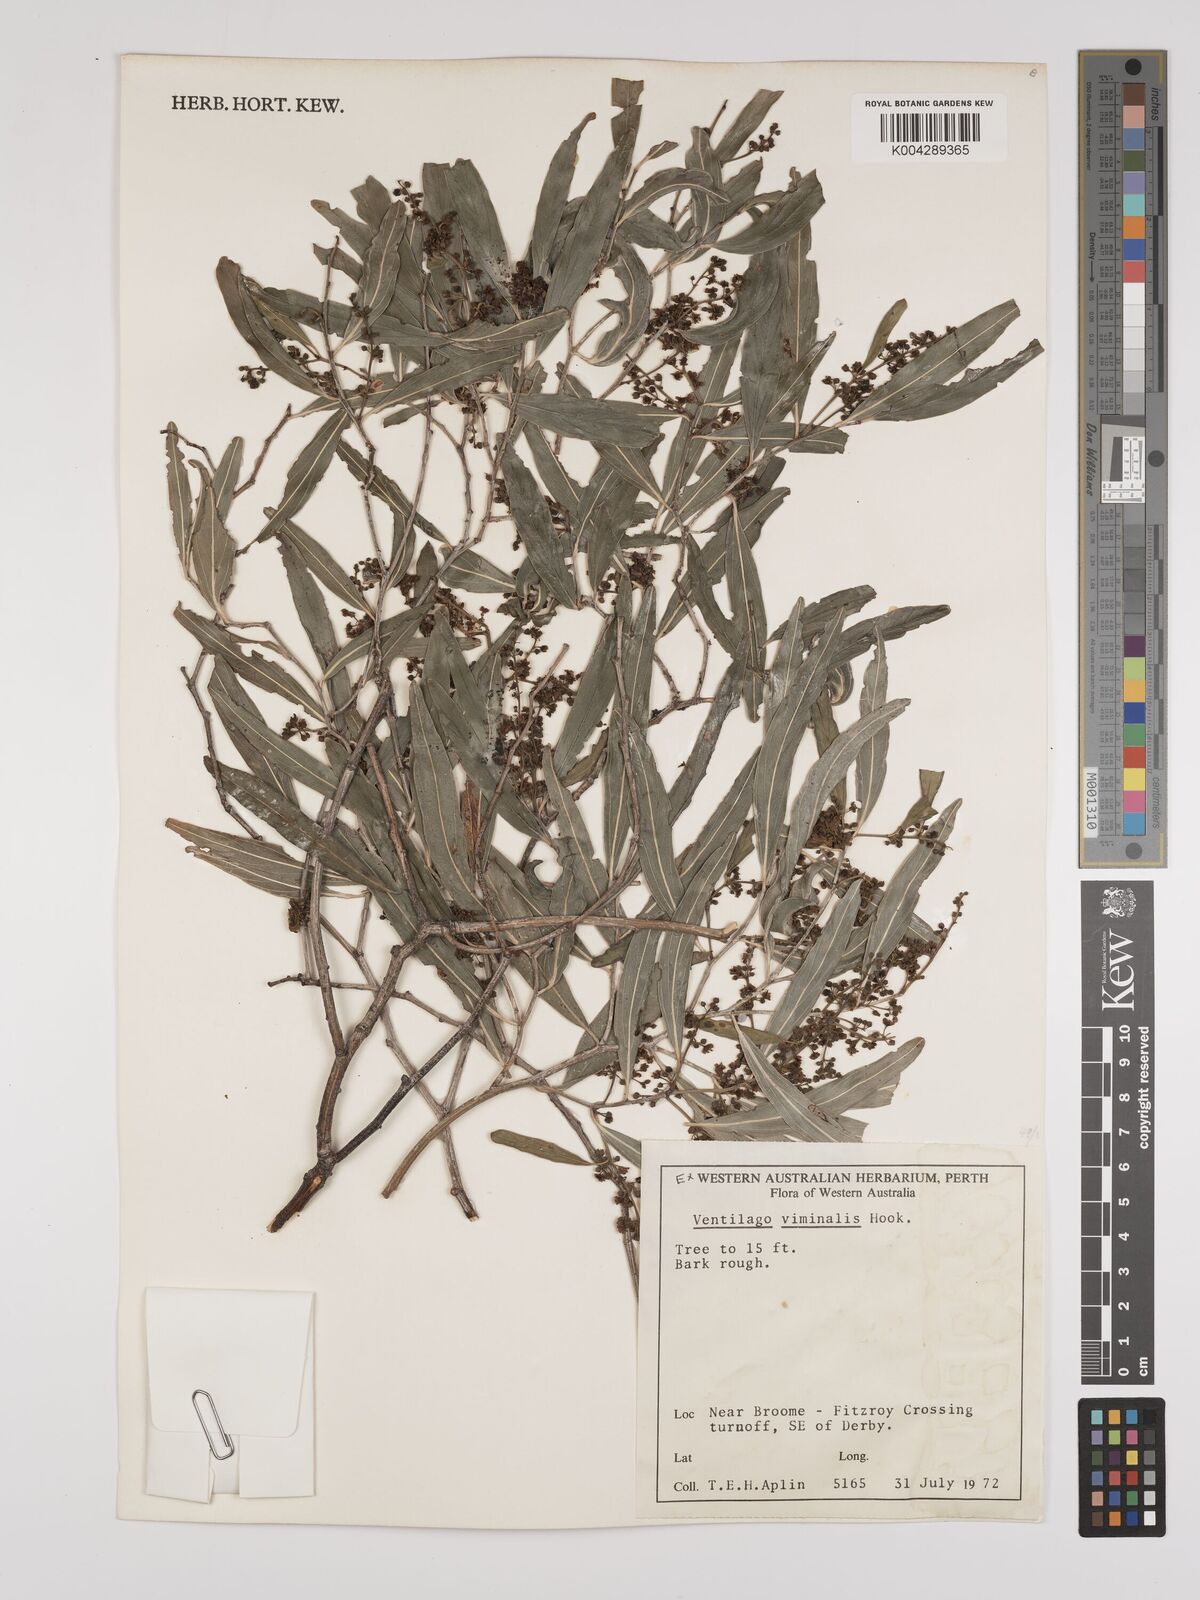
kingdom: Plantae
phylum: Tracheophyta
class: Magnoliopsida
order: Rosales
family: Rhamnaceae
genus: Ventilago
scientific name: Ventilago viminalis
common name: Medicine-bark
